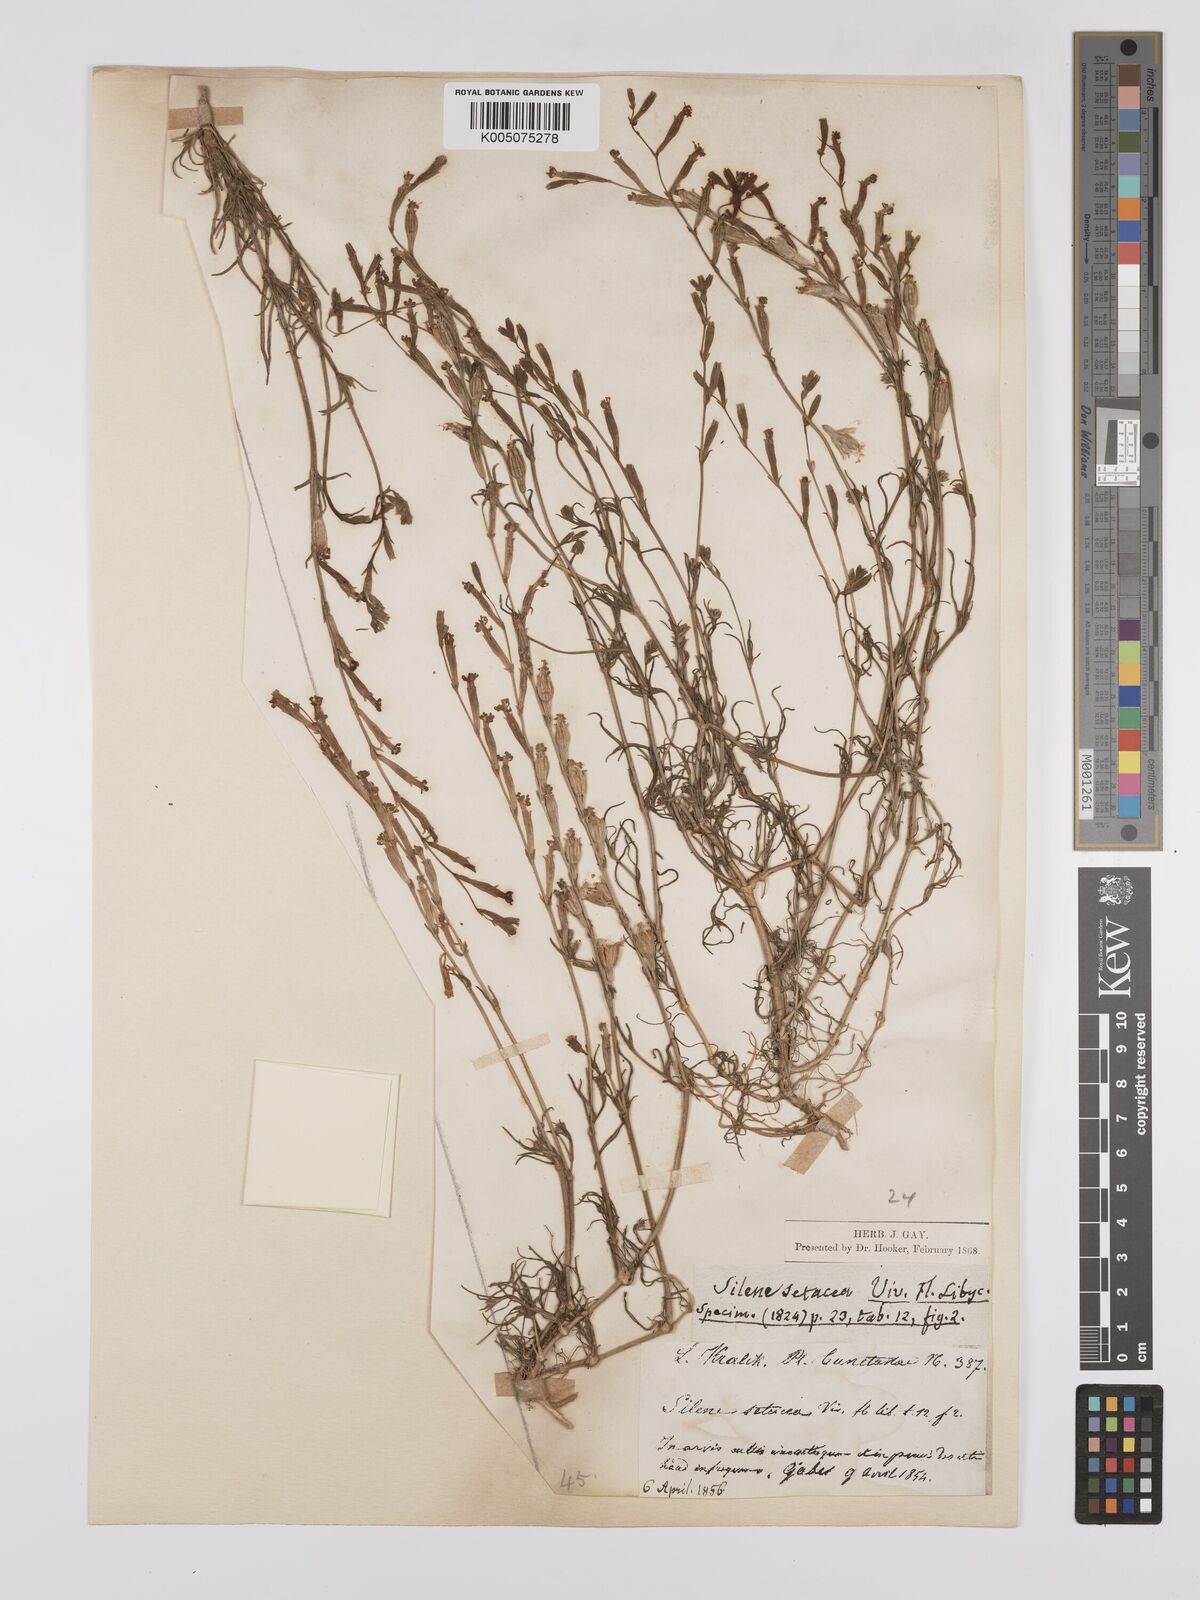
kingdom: Plantae
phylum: Tracheophyta
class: Magnoliopsida
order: Caryophyllales
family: Caryophyllaceae
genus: Silene
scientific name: Silene vivianii
